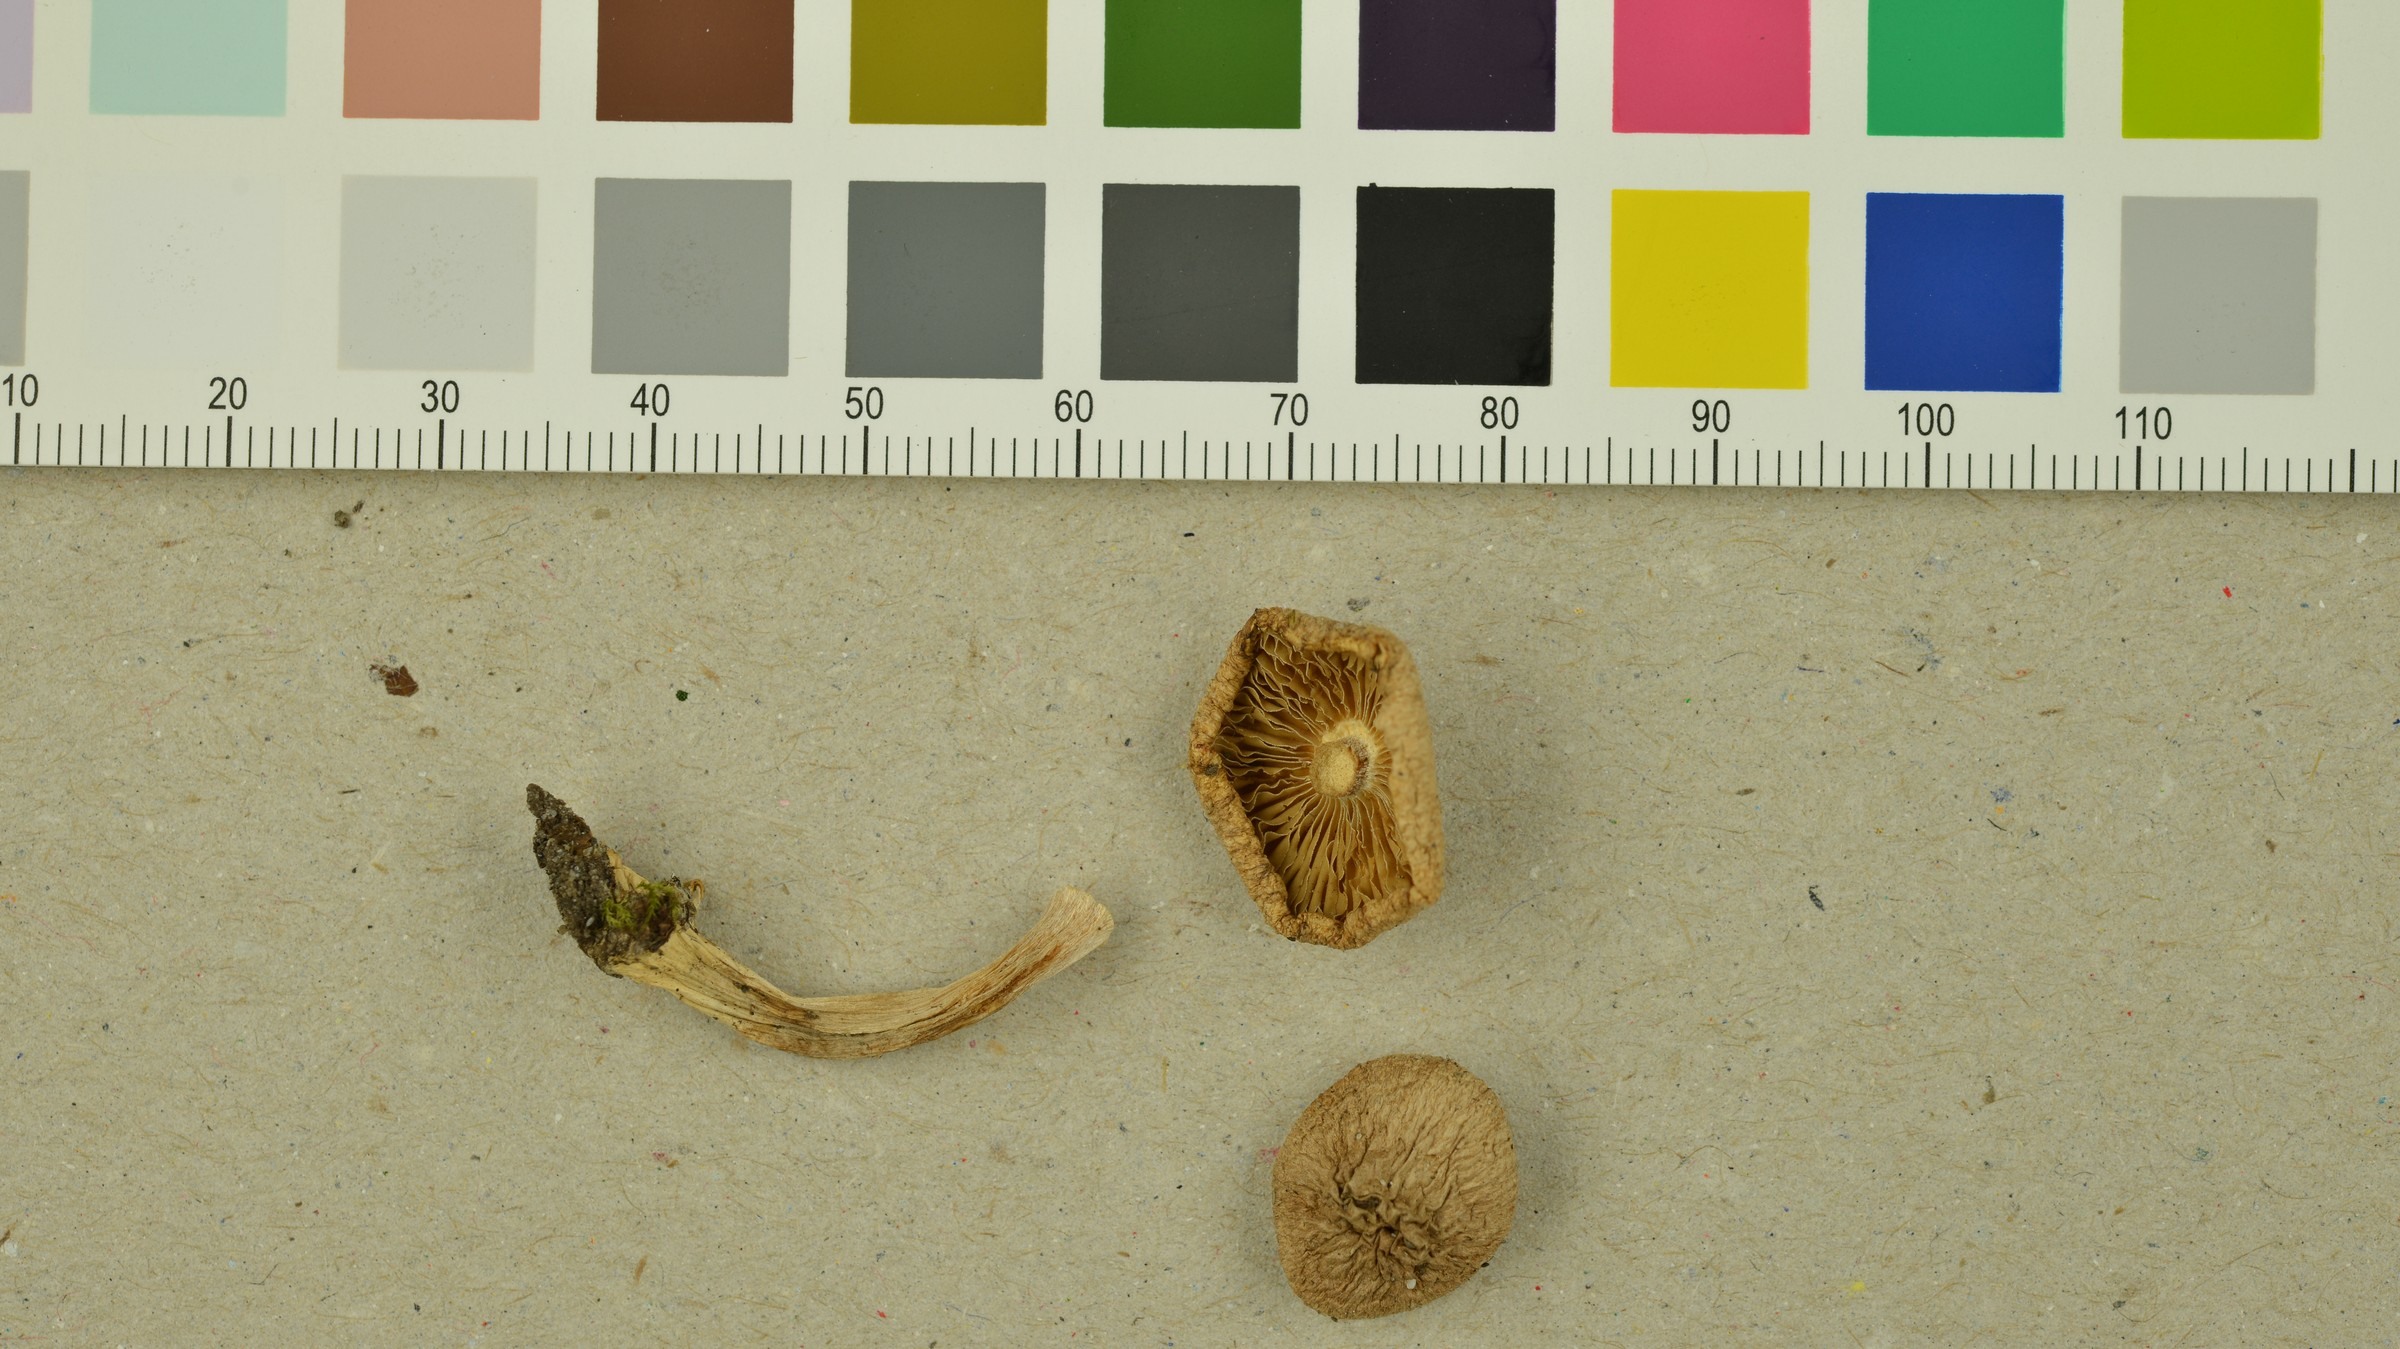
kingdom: Fungi
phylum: Basidiomycota
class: Agaricomycetes
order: Agaricales
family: Inocybaceae
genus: Inocybe
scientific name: Inocybe melanopus
